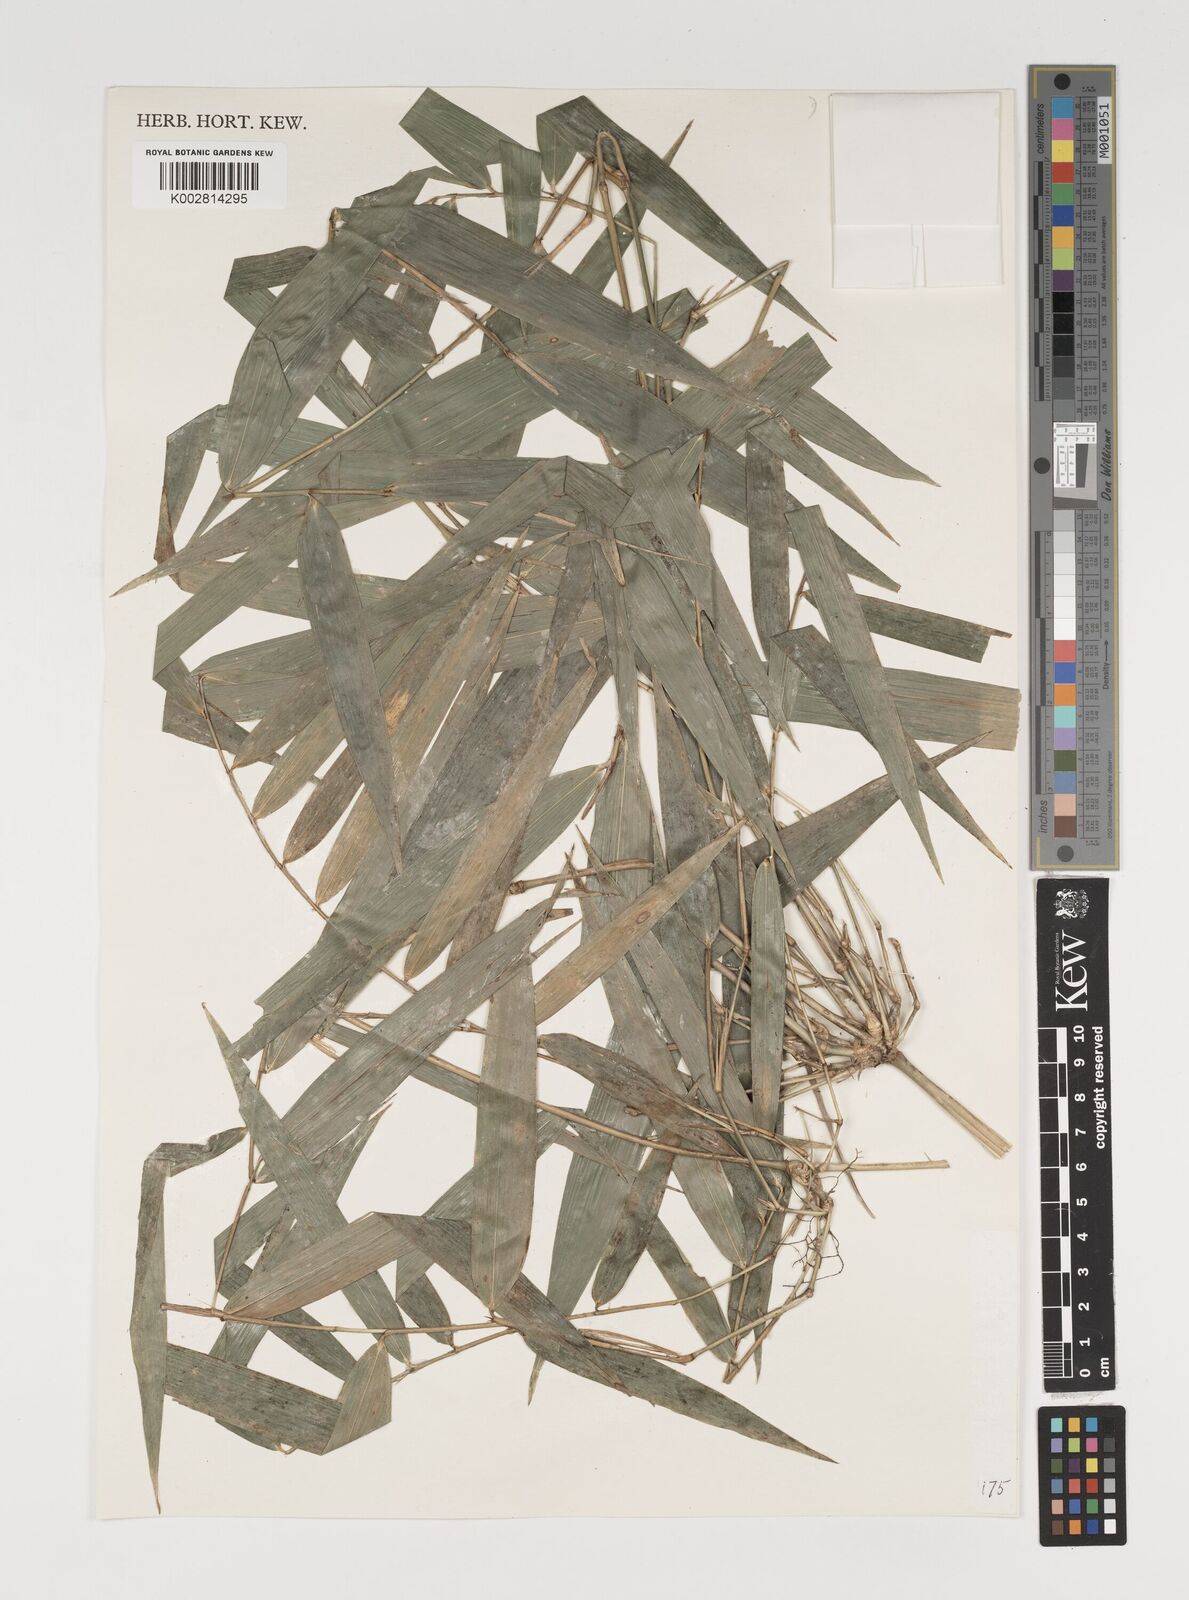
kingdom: Plantae
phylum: Tracheophyta
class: Liliopsida
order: Poales
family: Poaceae
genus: Arthrostylidium
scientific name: Arthrostylidium excelsum
